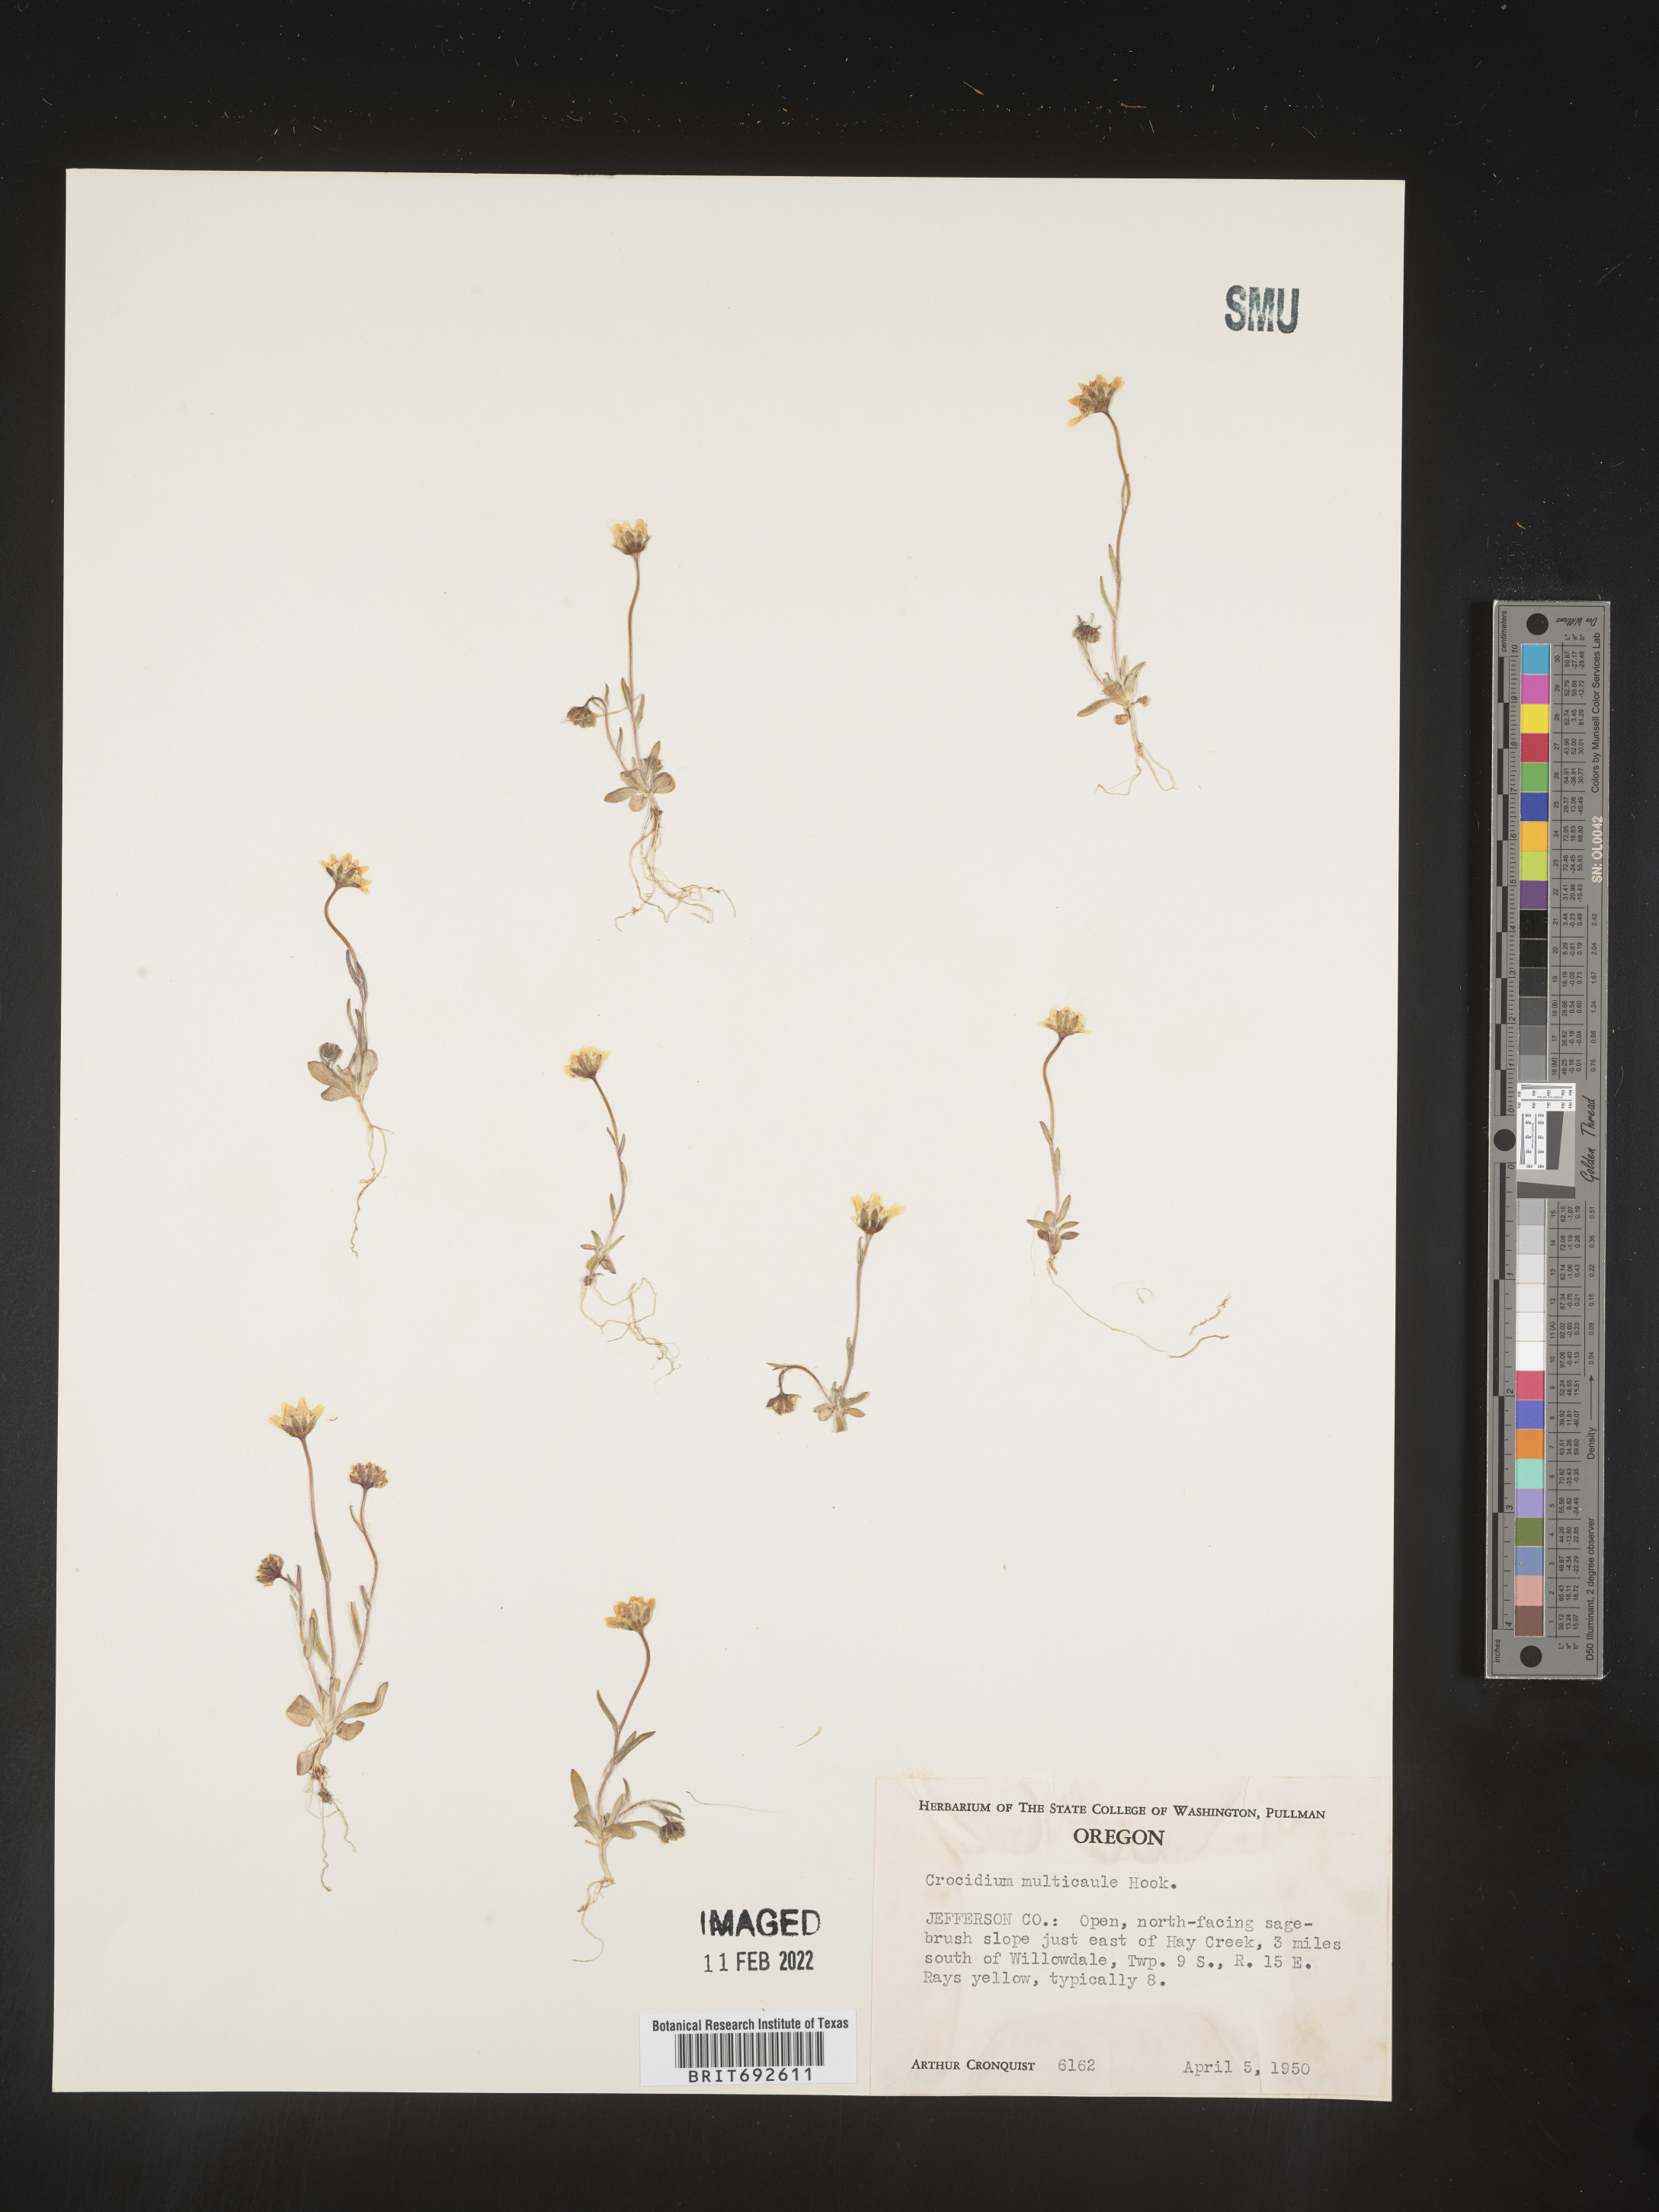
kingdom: Plantae
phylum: Tracheophyta
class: Magnoliopsida
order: Asterales
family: Asteraceae
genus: Crocidium
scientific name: Crocidium
